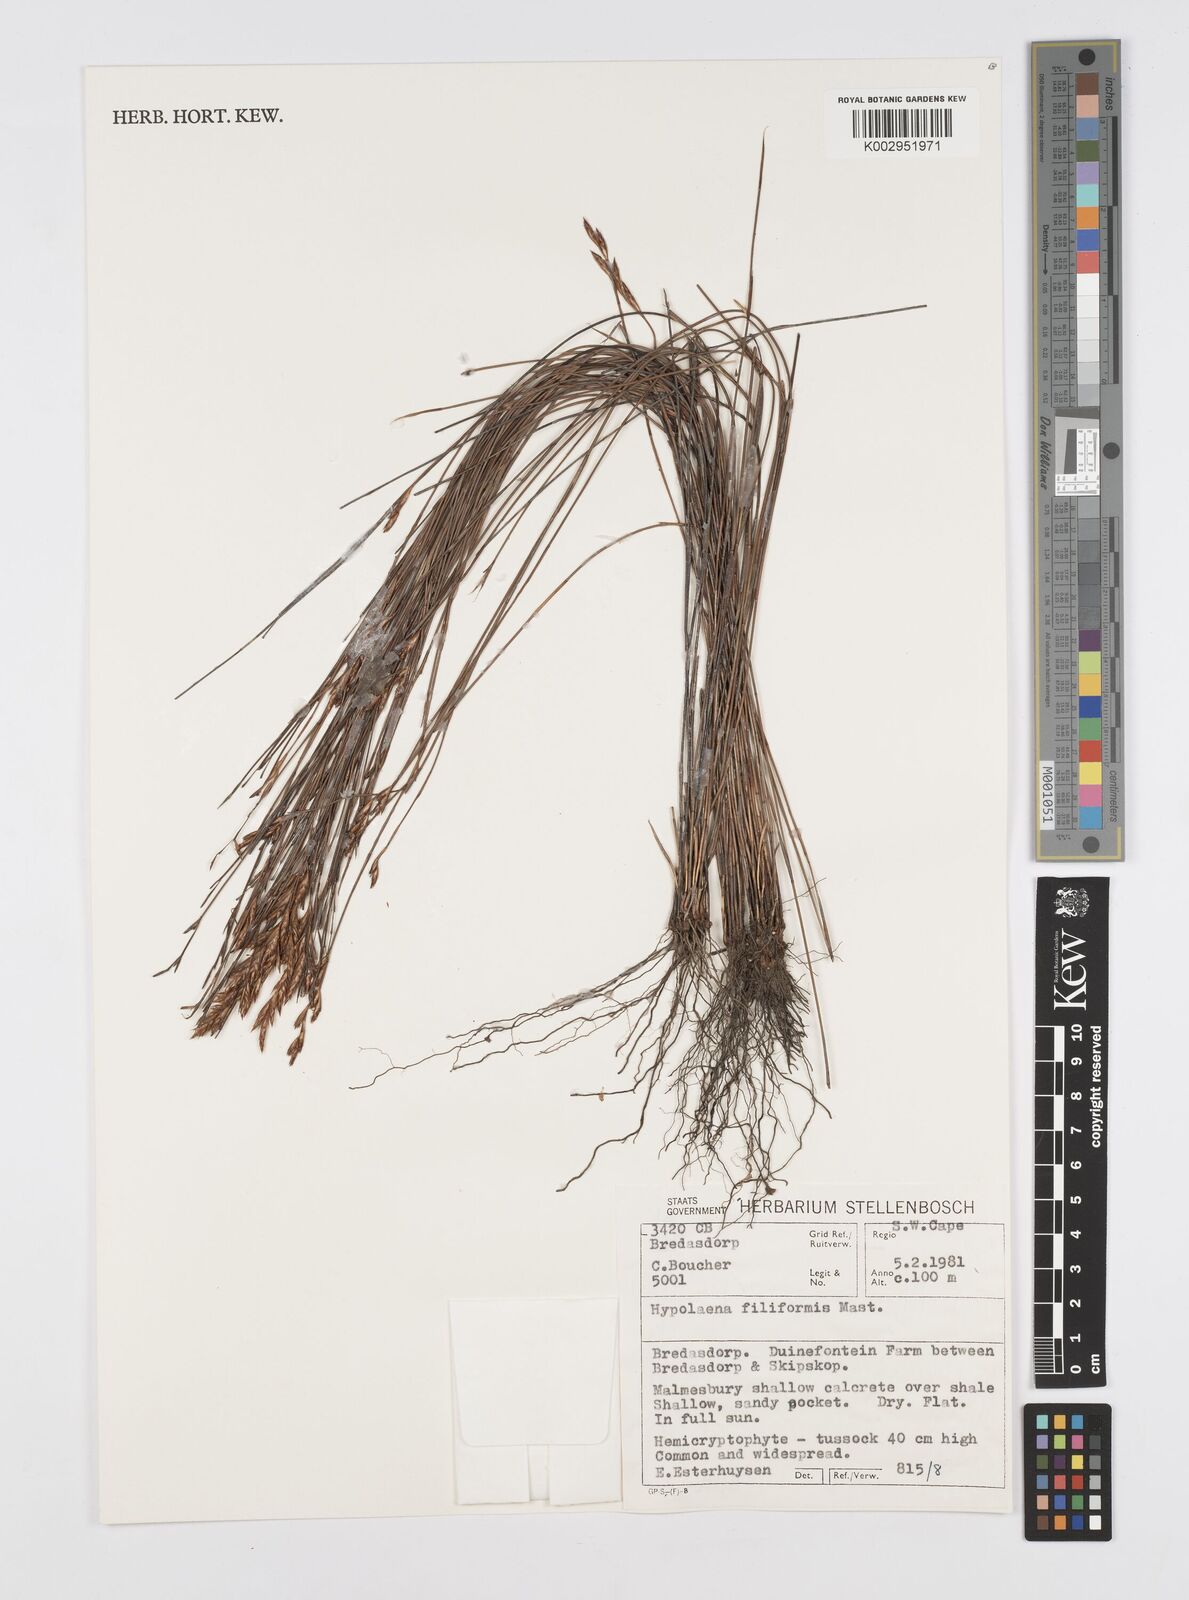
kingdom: Plantae
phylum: Tracheophyta
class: Liliopsida
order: Poales
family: Restionaceae
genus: Restio
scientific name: Restio filiformis
